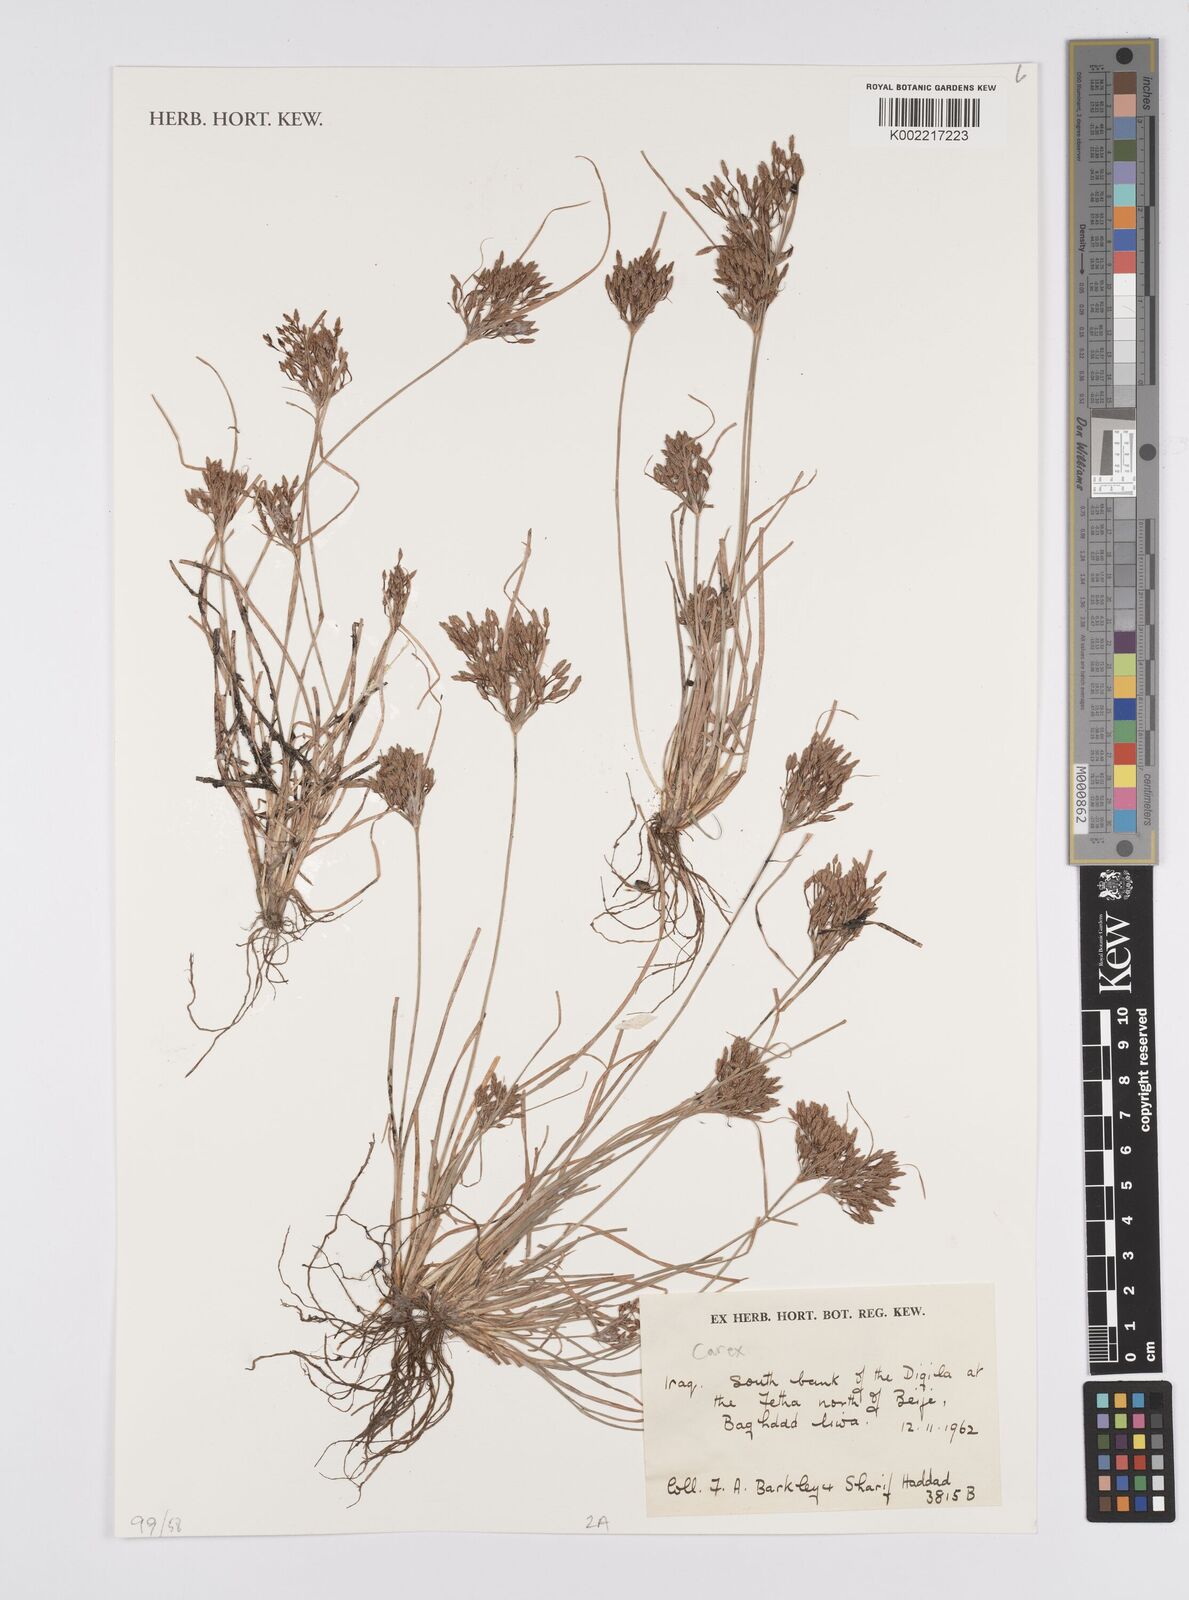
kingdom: Plantae
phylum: Tracheophyta
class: Liliopsida
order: Poales
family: Cyperaceae
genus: Carex
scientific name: Carex
